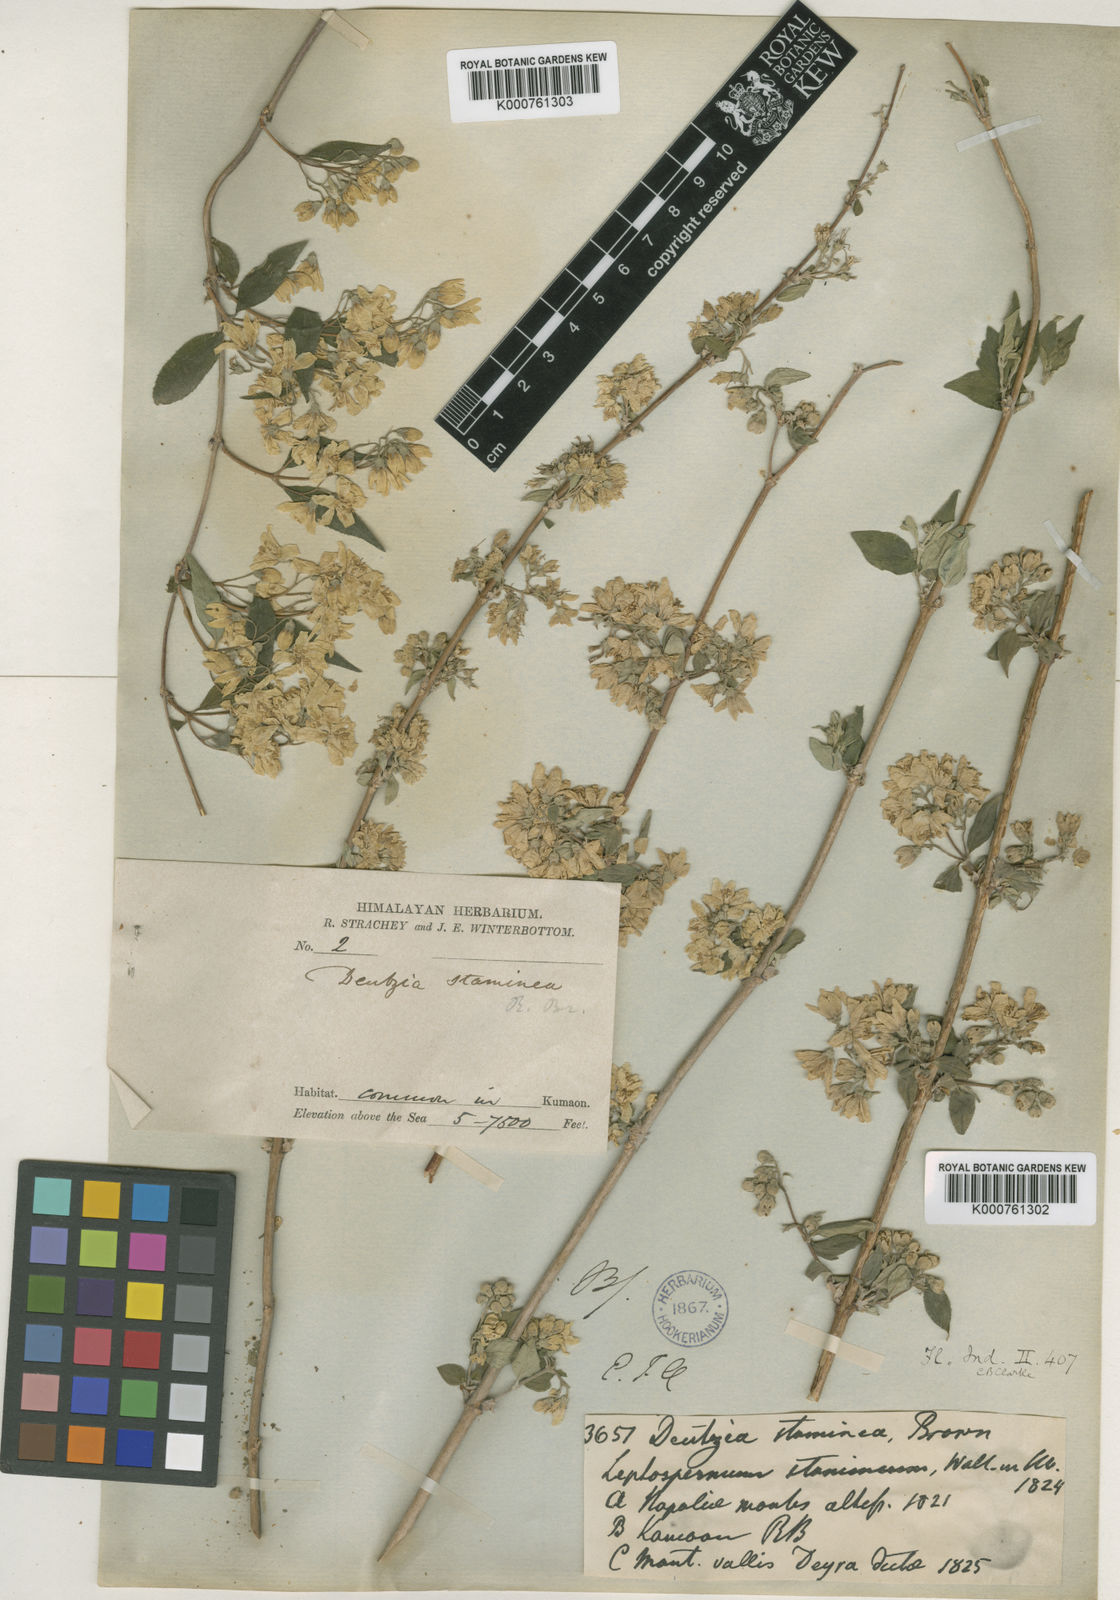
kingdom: Plantae
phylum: Tracheophyta
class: Magnoliopsida
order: Cornales
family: Hydrangeaceae
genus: Deutzia
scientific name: Deutzia
